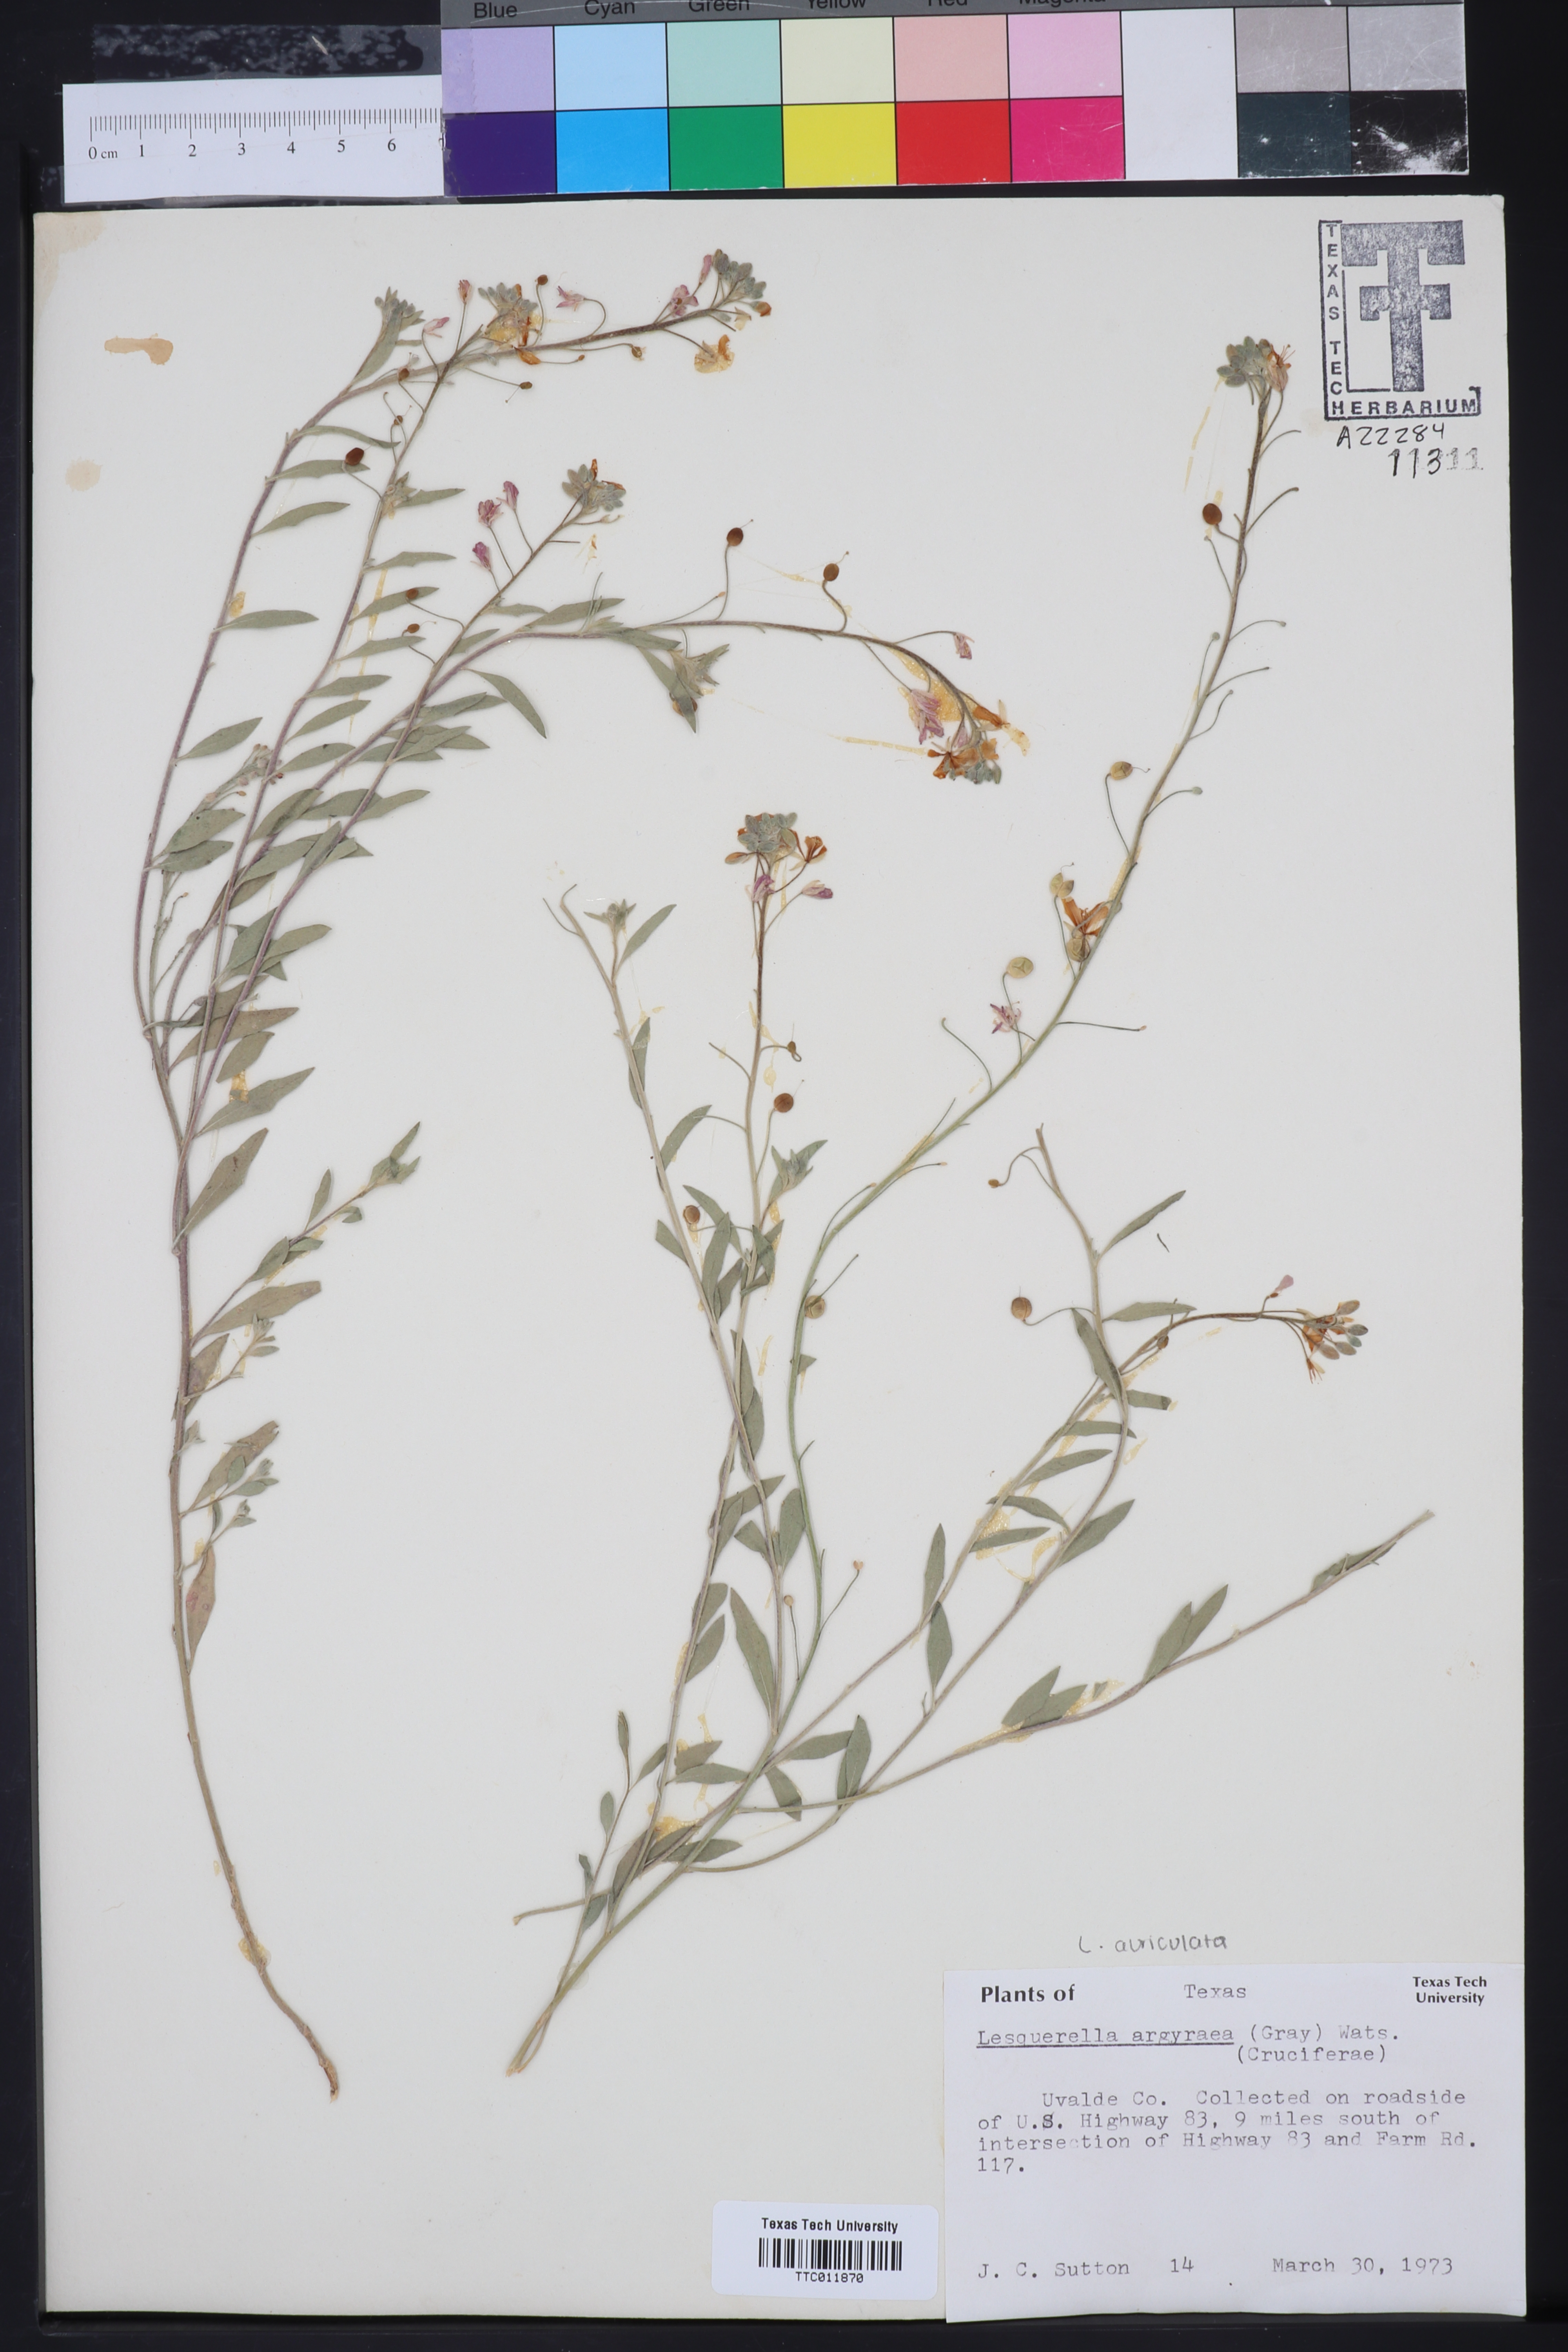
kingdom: Plantae
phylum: Tracheophyta
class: Magnoliopsida
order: Brassicales
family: Brassicaceae
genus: Physaria
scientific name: Physaria argyraea
